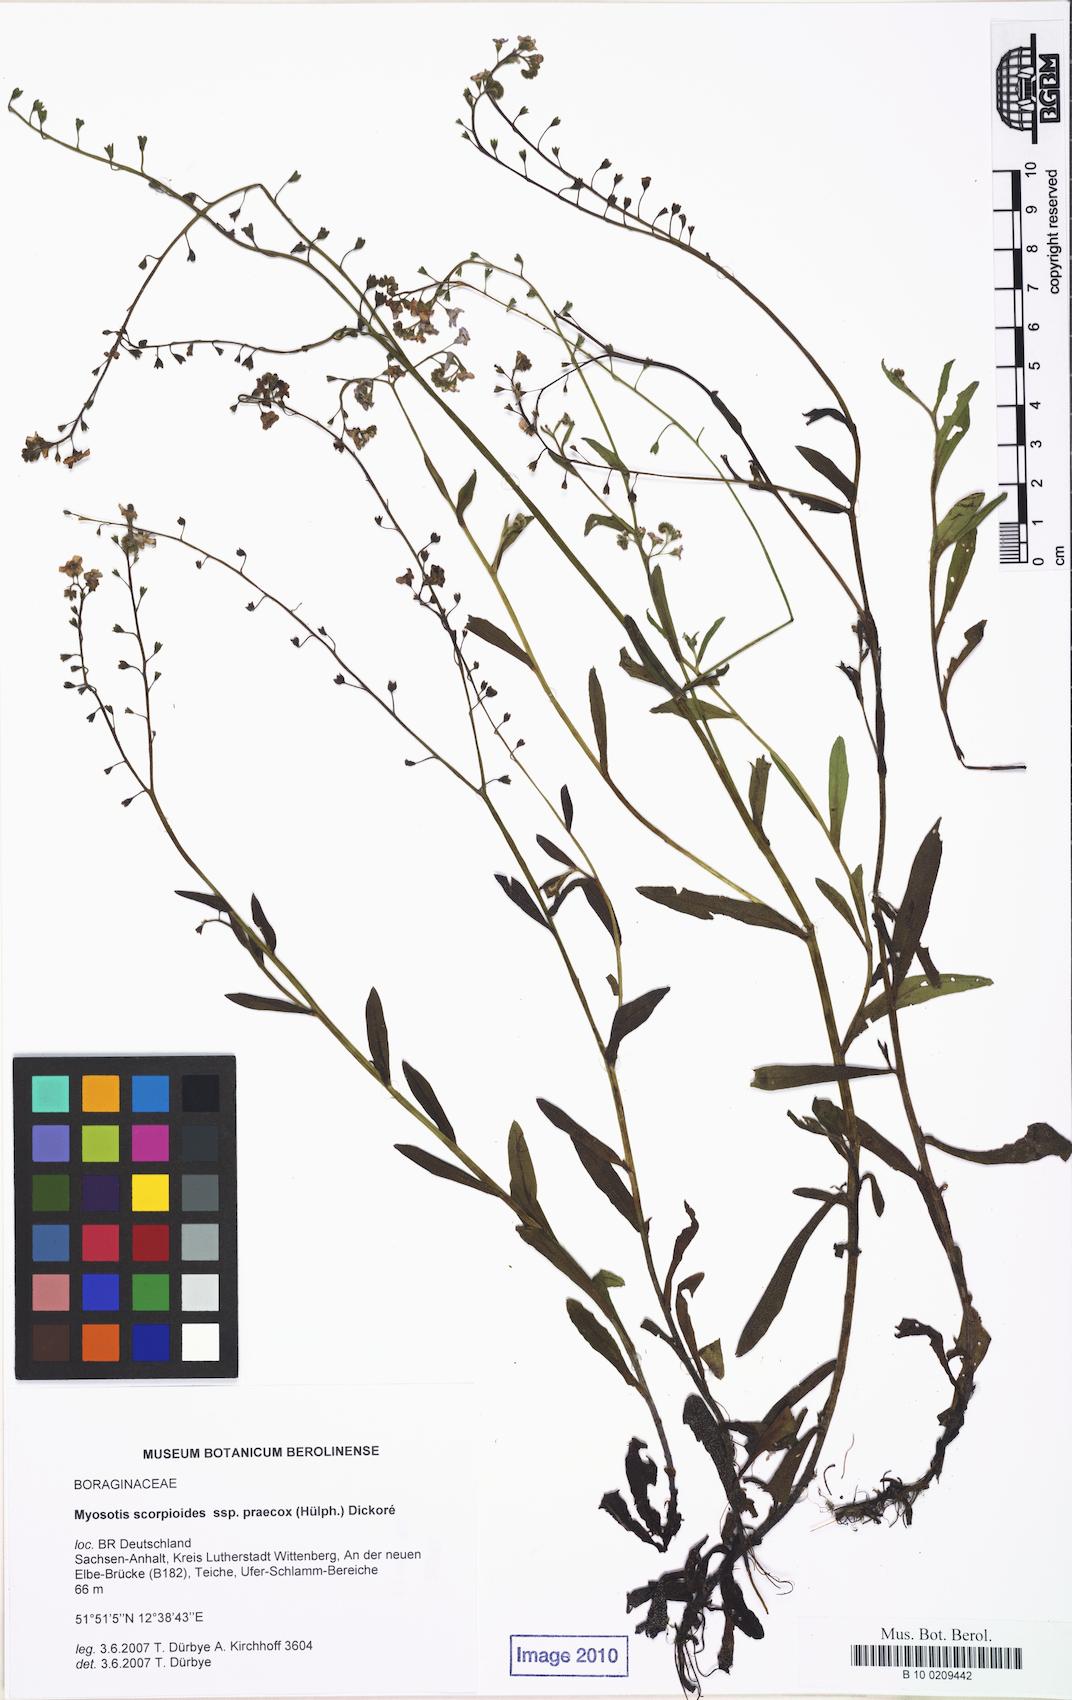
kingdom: Plantae
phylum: Tracheophyta
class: Magnoliopsida
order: Boraginales
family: Boraginaceae
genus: Myosotis
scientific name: Myosotis praecox
